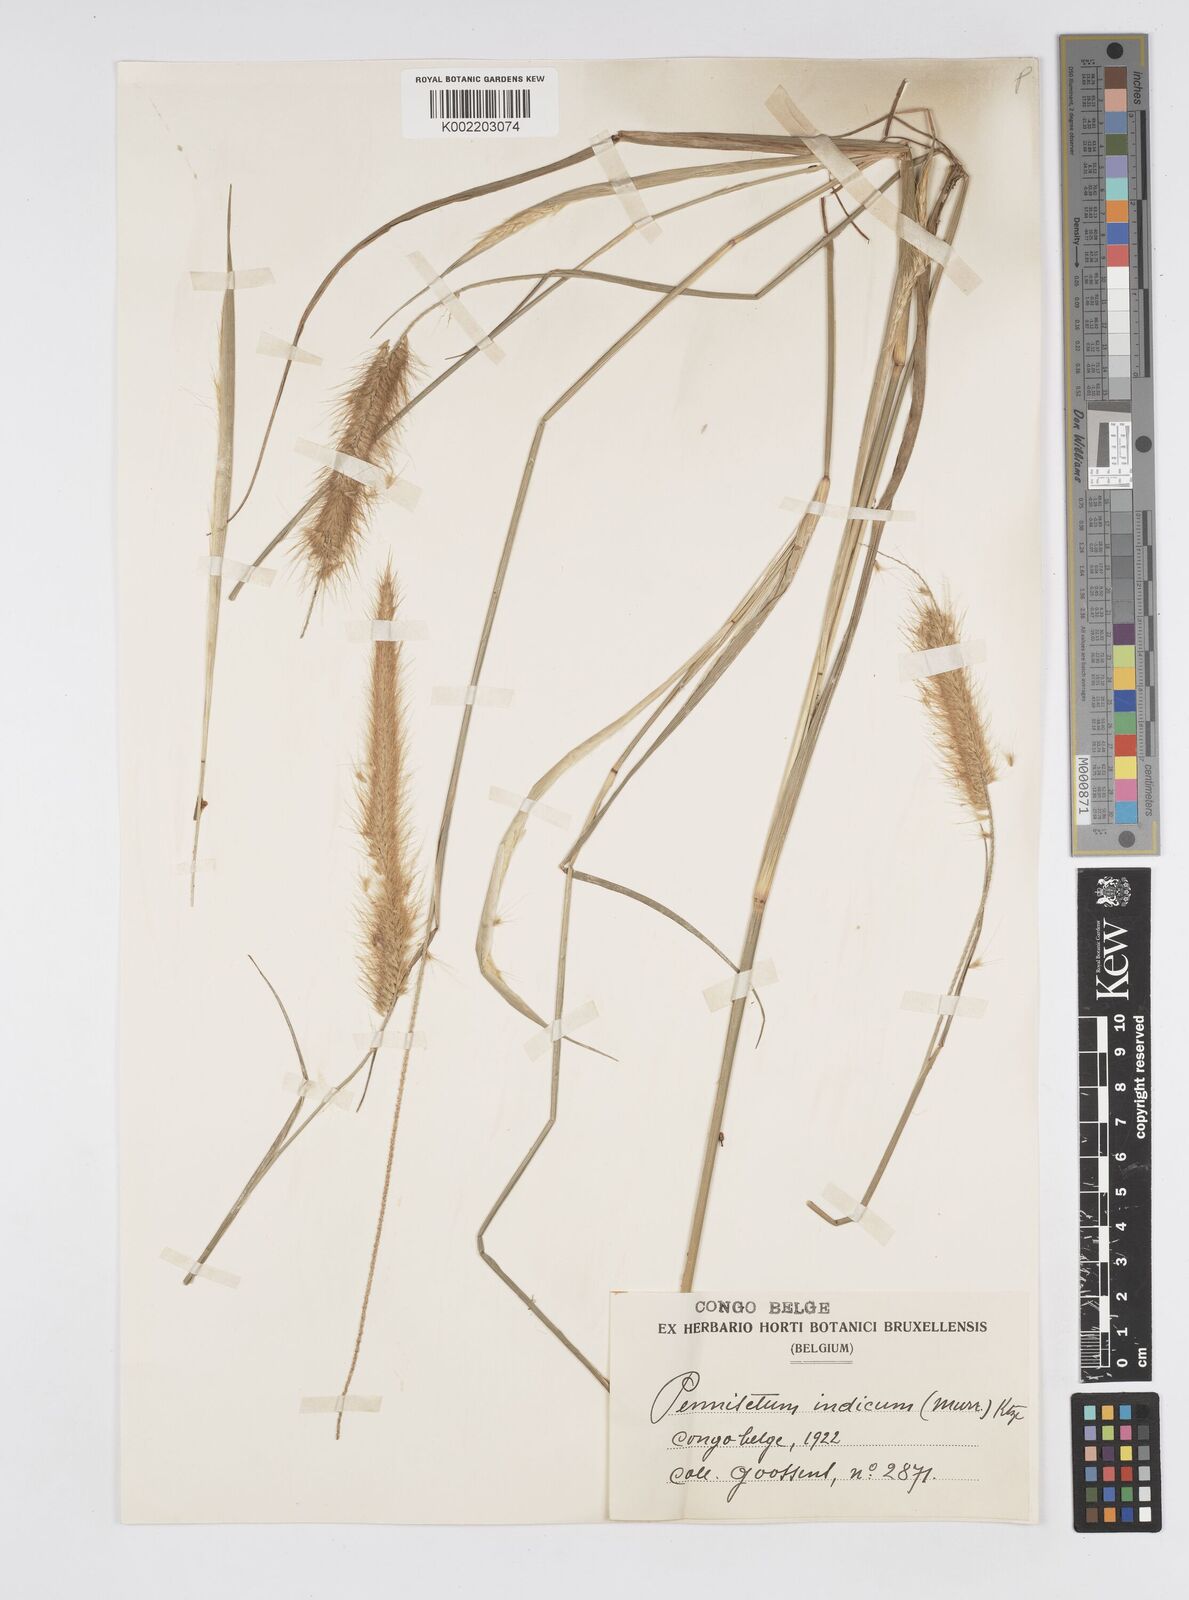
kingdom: Plantae
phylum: Tracheophyta
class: Liliopsida
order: Poales
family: Poaceae
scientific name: Poaceae
